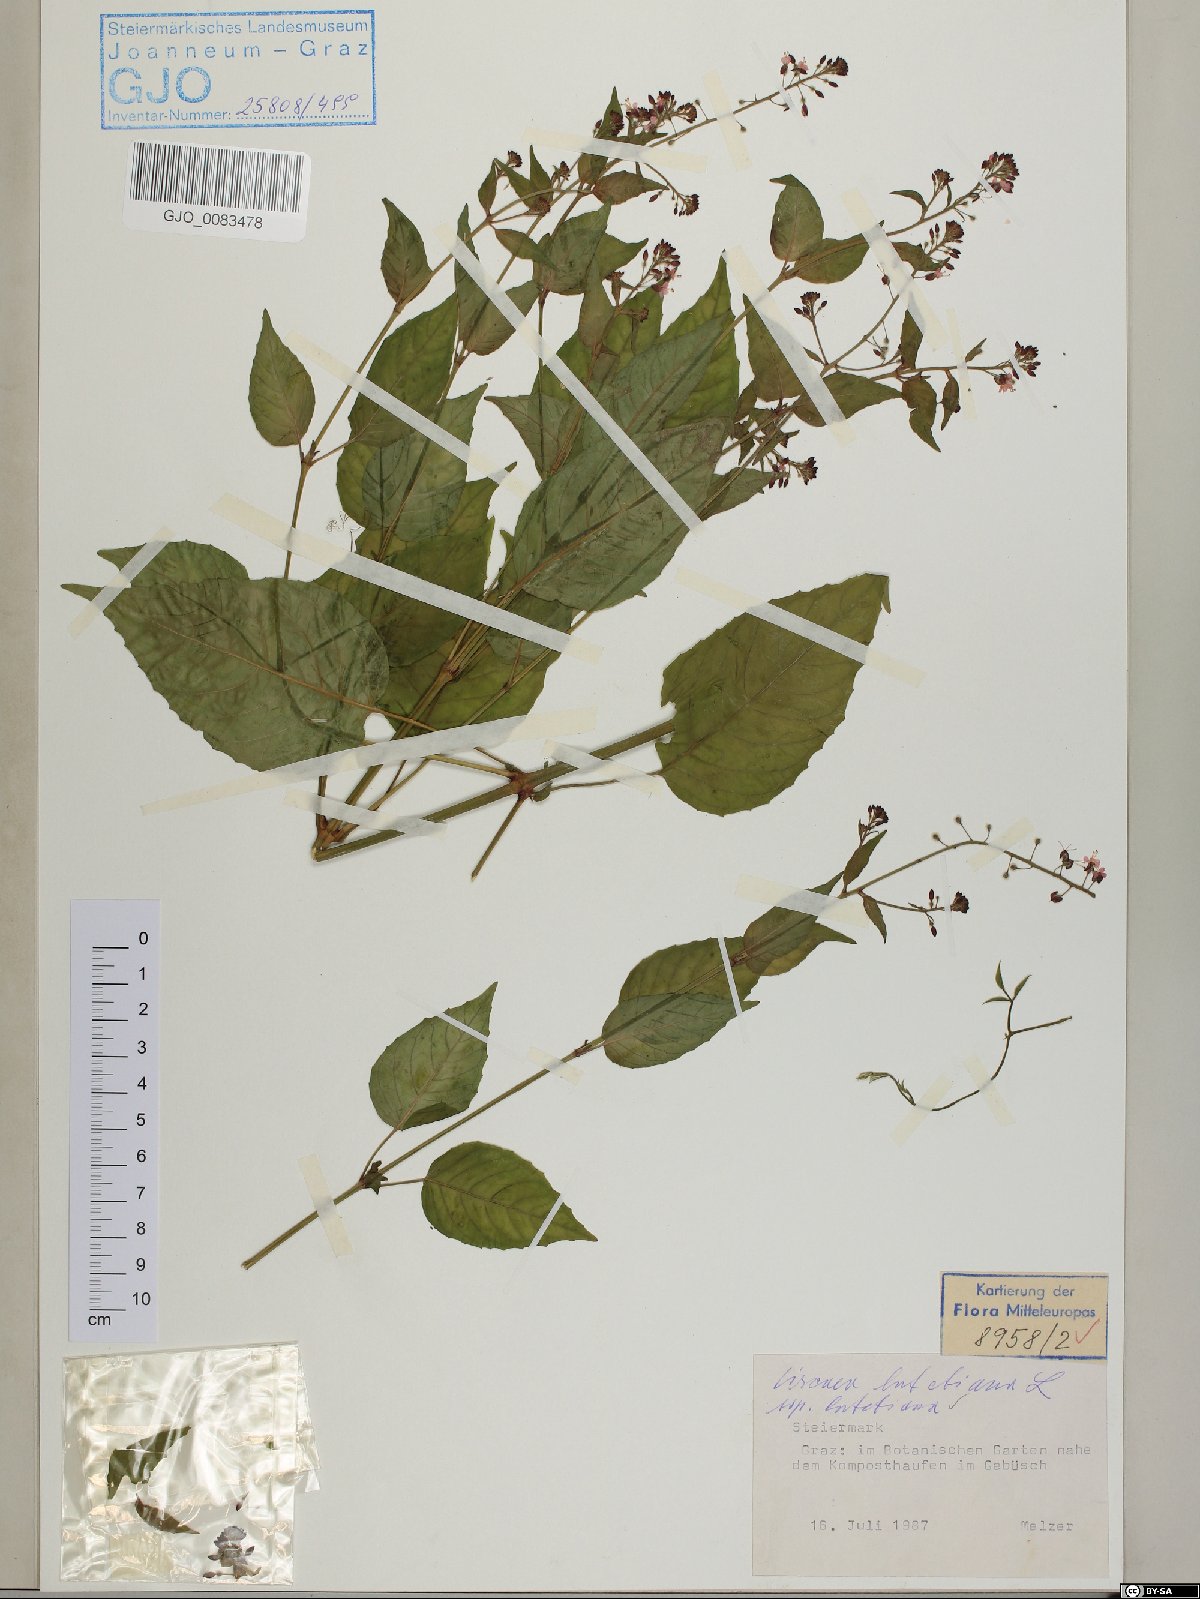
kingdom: Plantae
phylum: Tracheophyta
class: Magnoliopsida
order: Myrtales
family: Onagraceae
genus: Circaea
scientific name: Circaea lutetiana
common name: Enchanter's-nightshade
